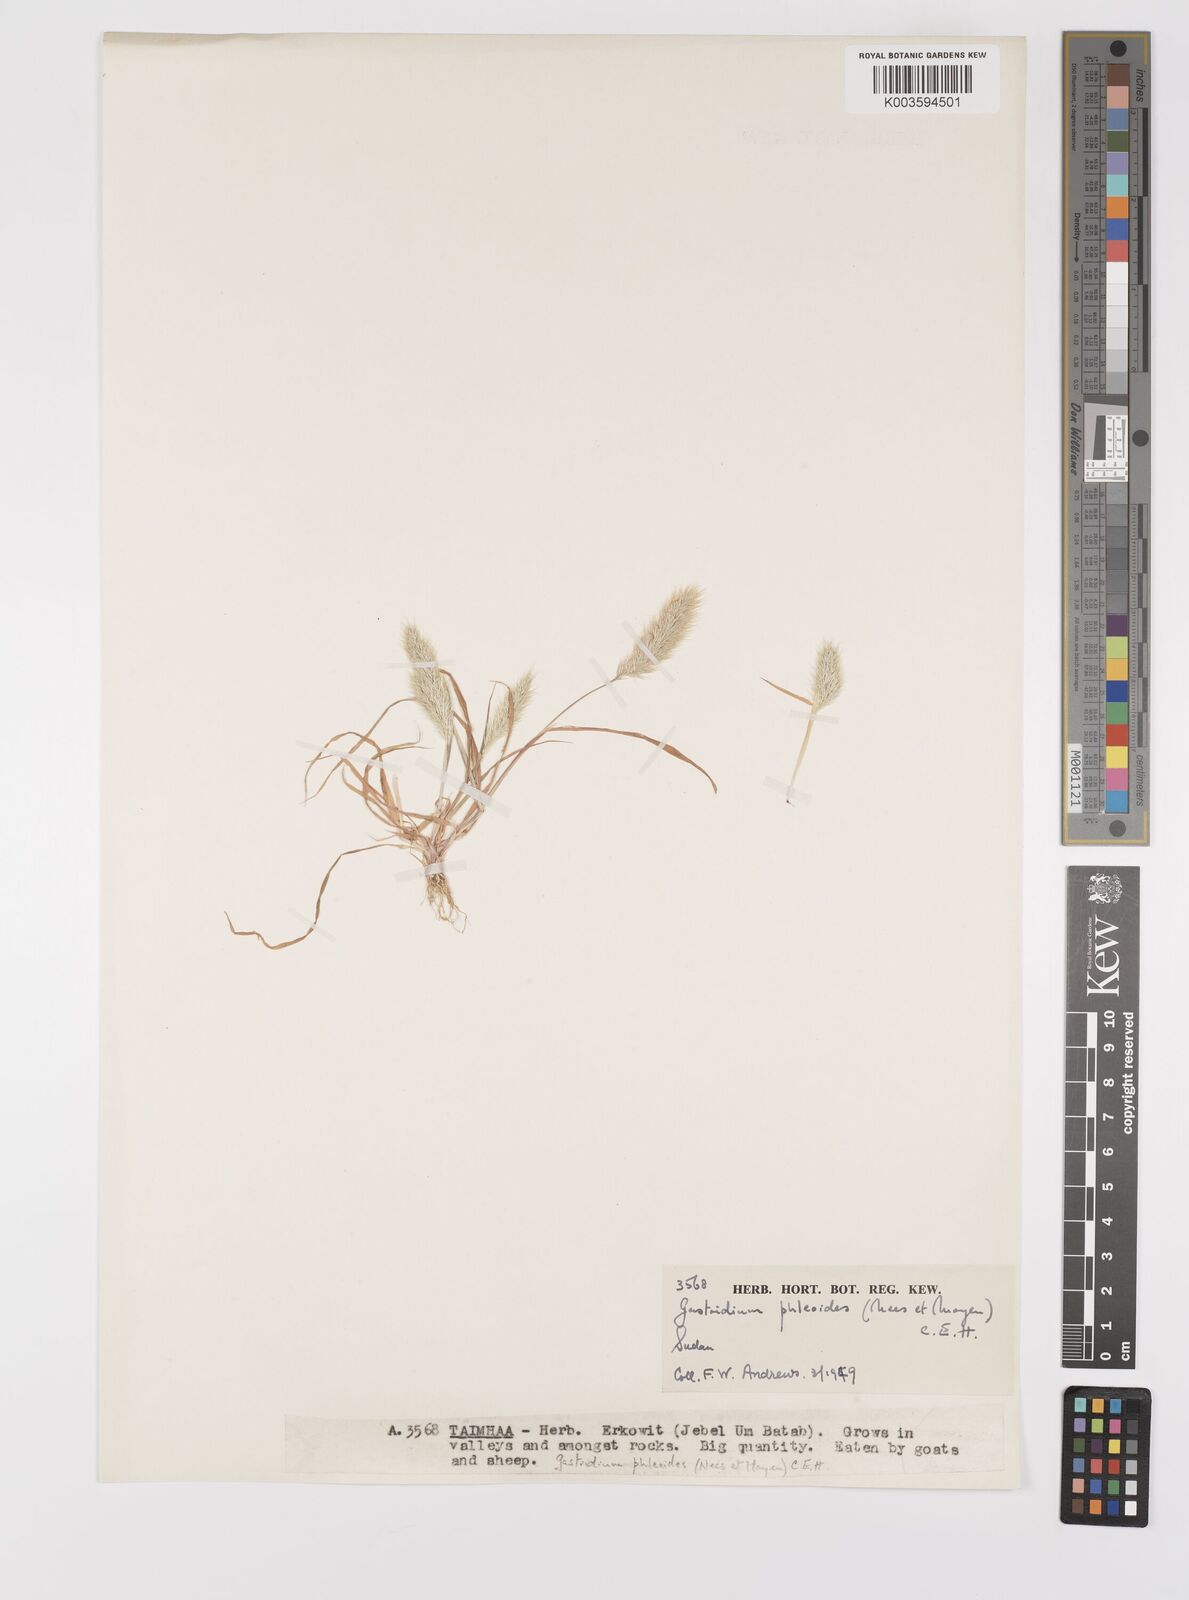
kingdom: Plantae
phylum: Tracheophyta
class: Liliopsida
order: Poales
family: Poaceae
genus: Gastridium
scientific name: Gastridium phleoides
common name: Nit grass
